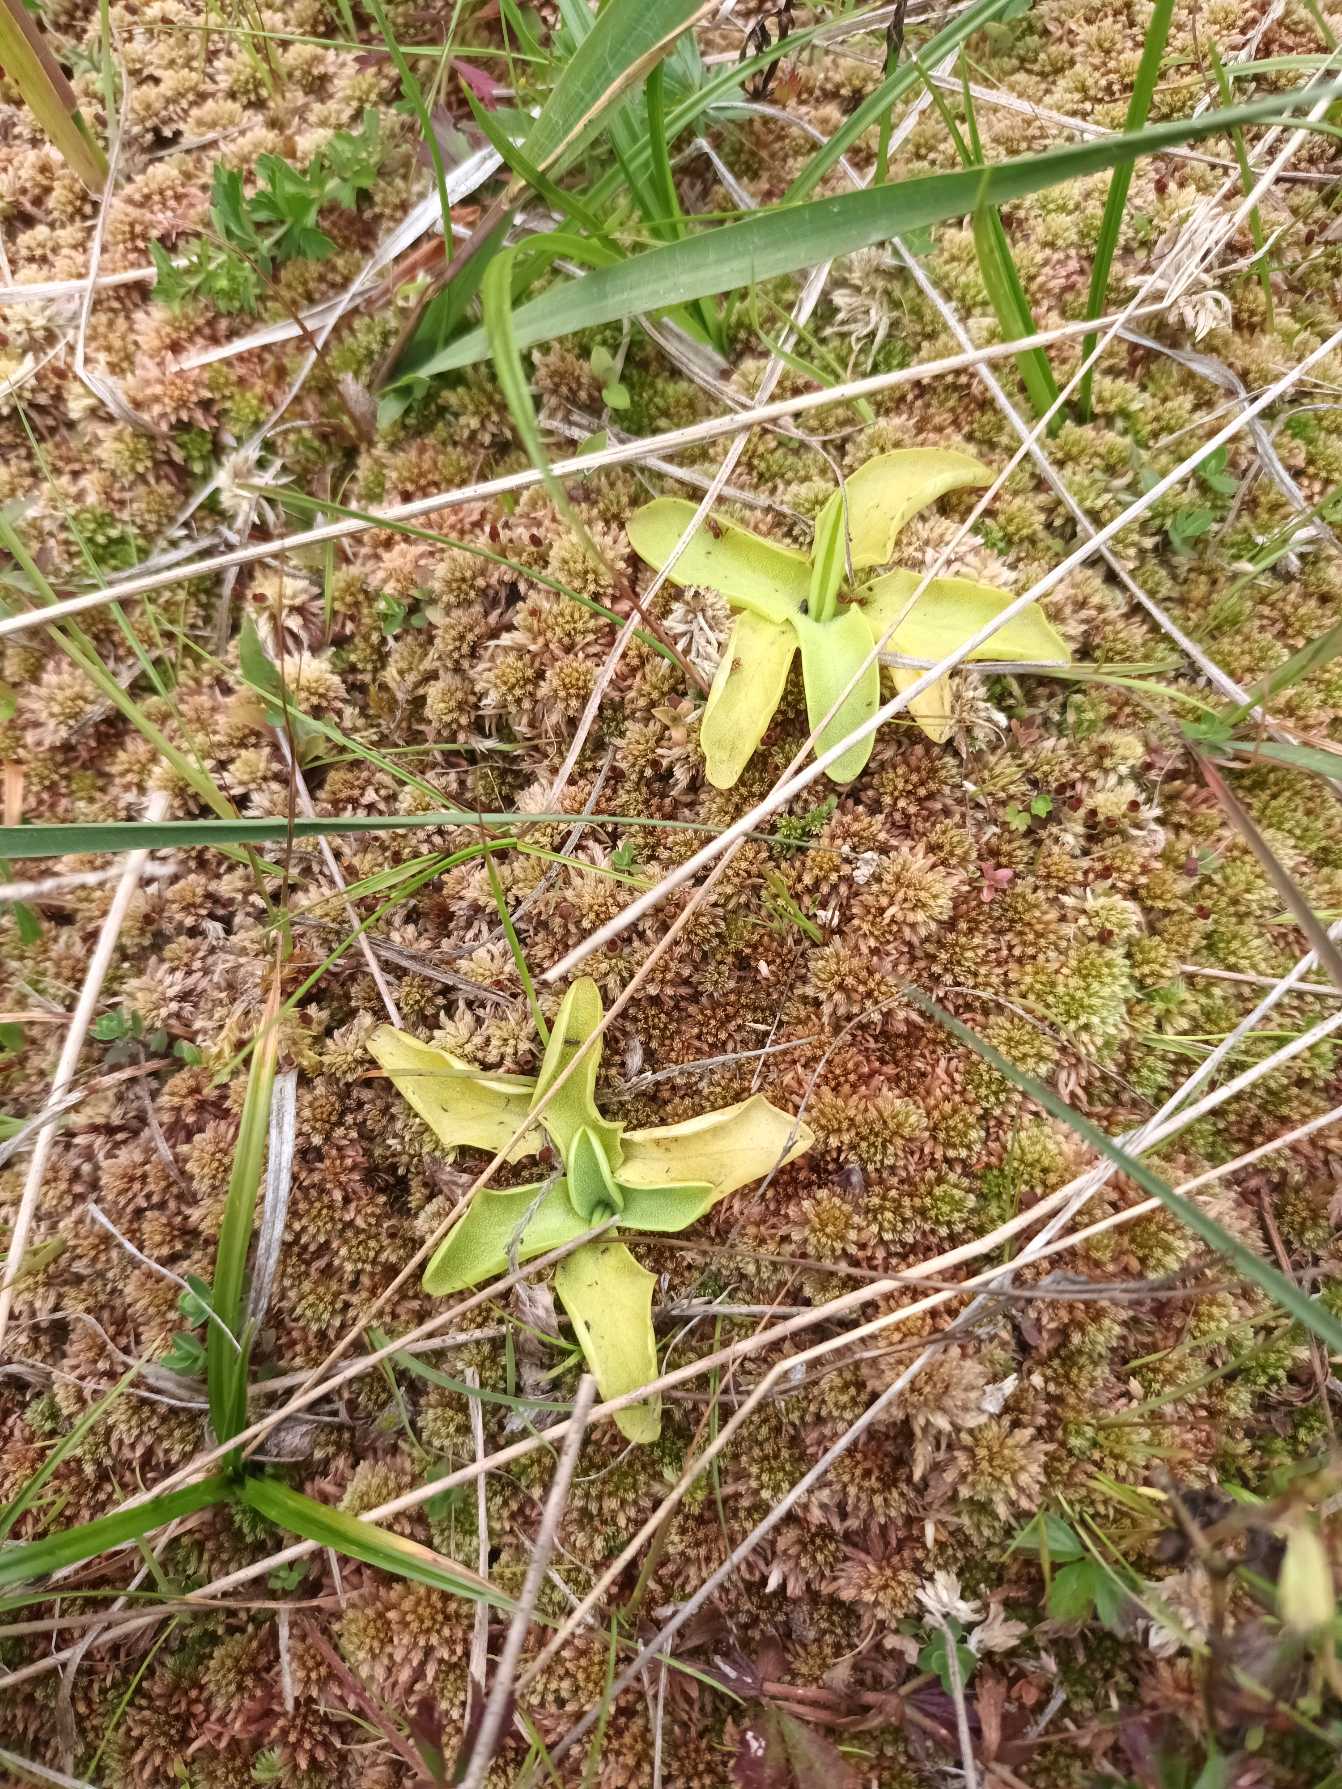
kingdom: Plantae
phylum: Tracheophyta
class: Magnoliopsida
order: Lamiales
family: Lentibulariaceae
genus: Pinguicula
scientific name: Pinguicula vulgaris
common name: Vibefedt
